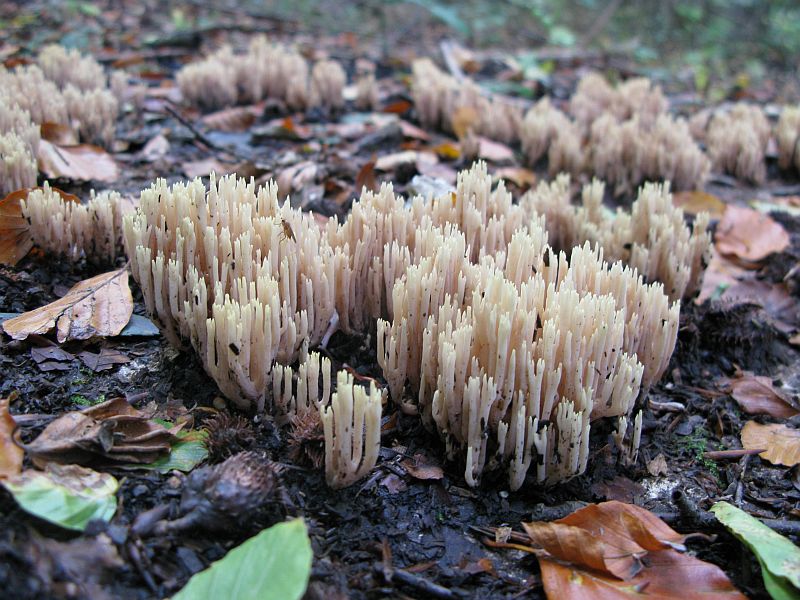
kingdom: Fungi
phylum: Basidiomycota
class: Agaricomycetes
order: Gomphales
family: Gomphaceae
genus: Ramaria
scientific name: Ramaria stricta
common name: rank koralsvamp
